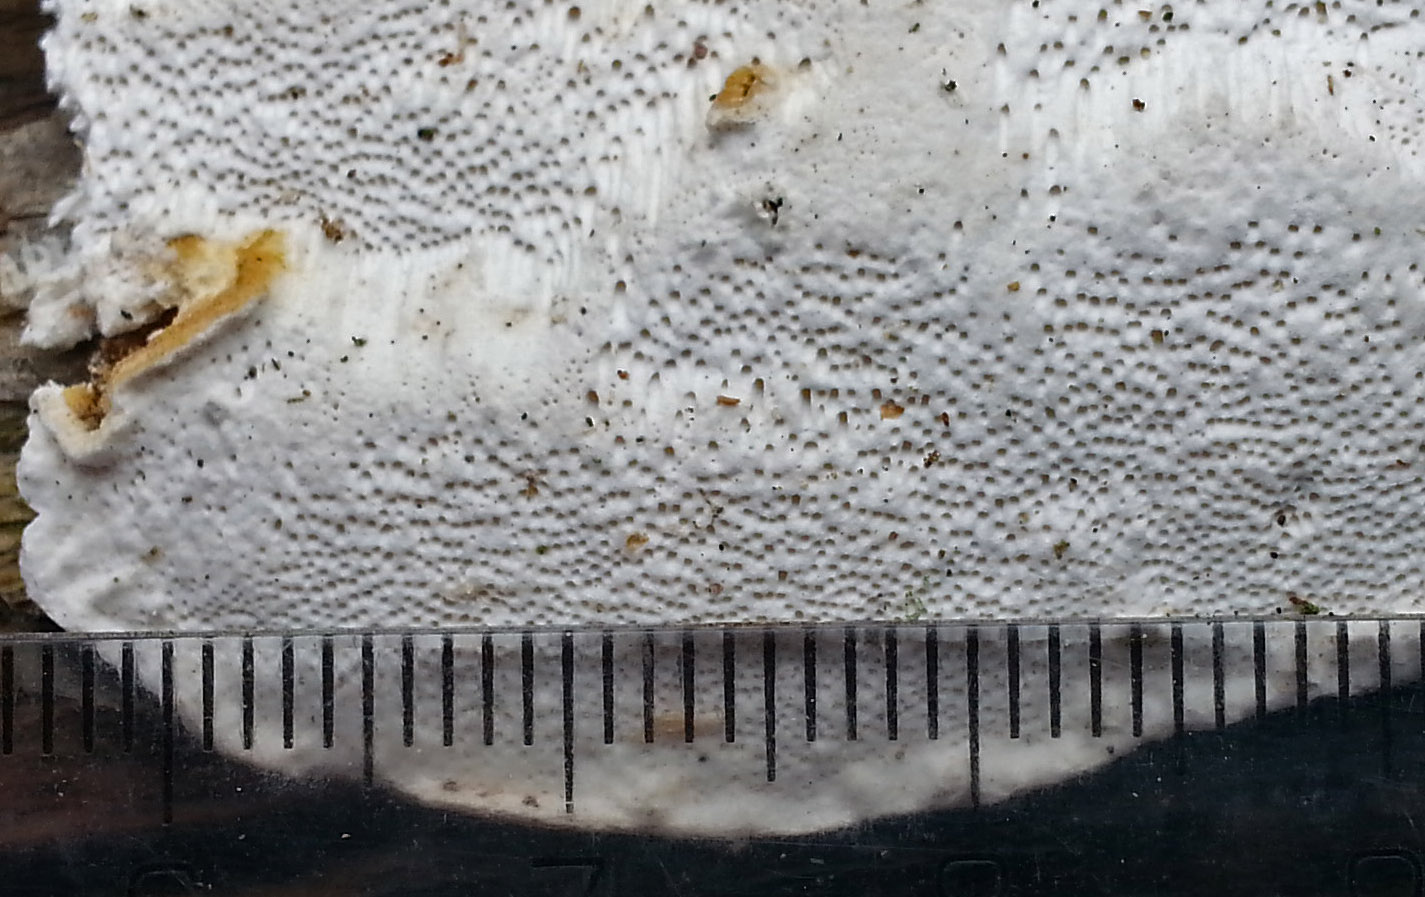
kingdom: Fungi
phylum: Basidiomycota
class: Agaricomycetes
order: Polyporales
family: Fomitopsidaceae
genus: Neoantrodia
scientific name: Neoantrodia serialis
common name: række-sejporesvamp
